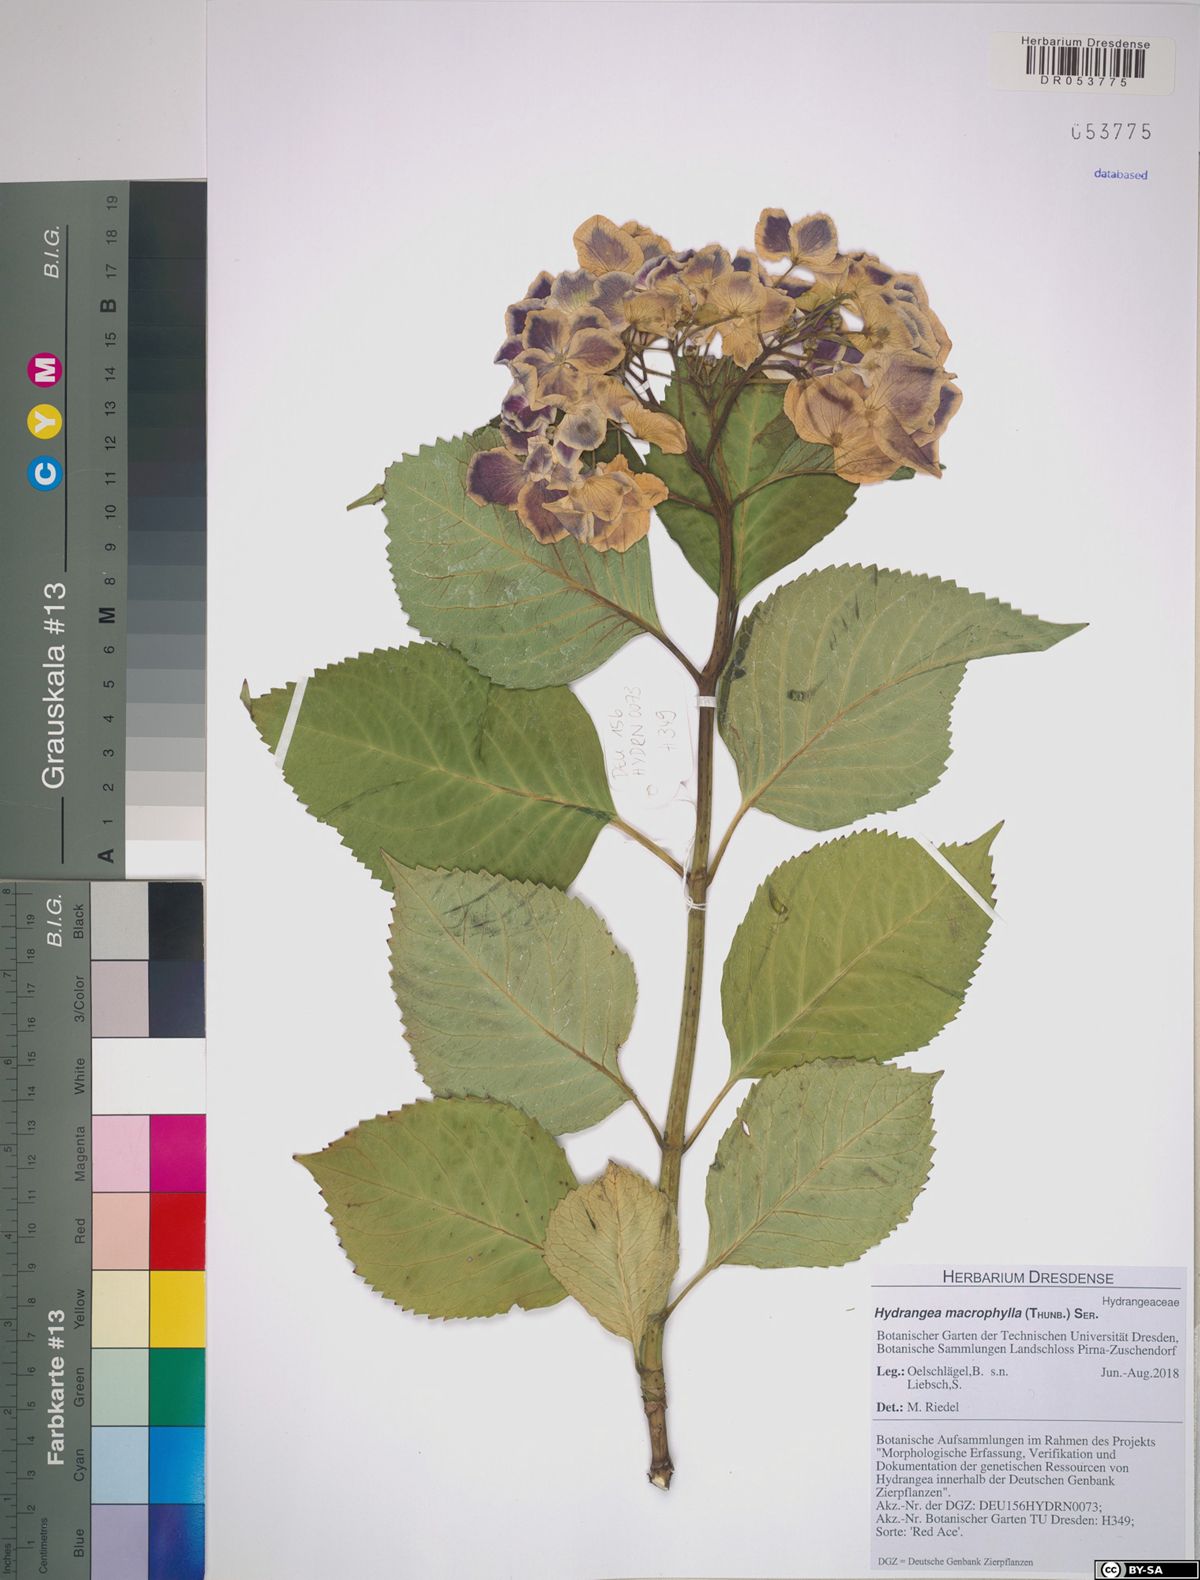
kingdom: Plantae
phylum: Tracheophyta
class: Magnoliopsida
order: Cornales
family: Hydrangeaceae
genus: Hydrangea
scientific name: Hydrangea macrophylla
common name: Hydrangea
